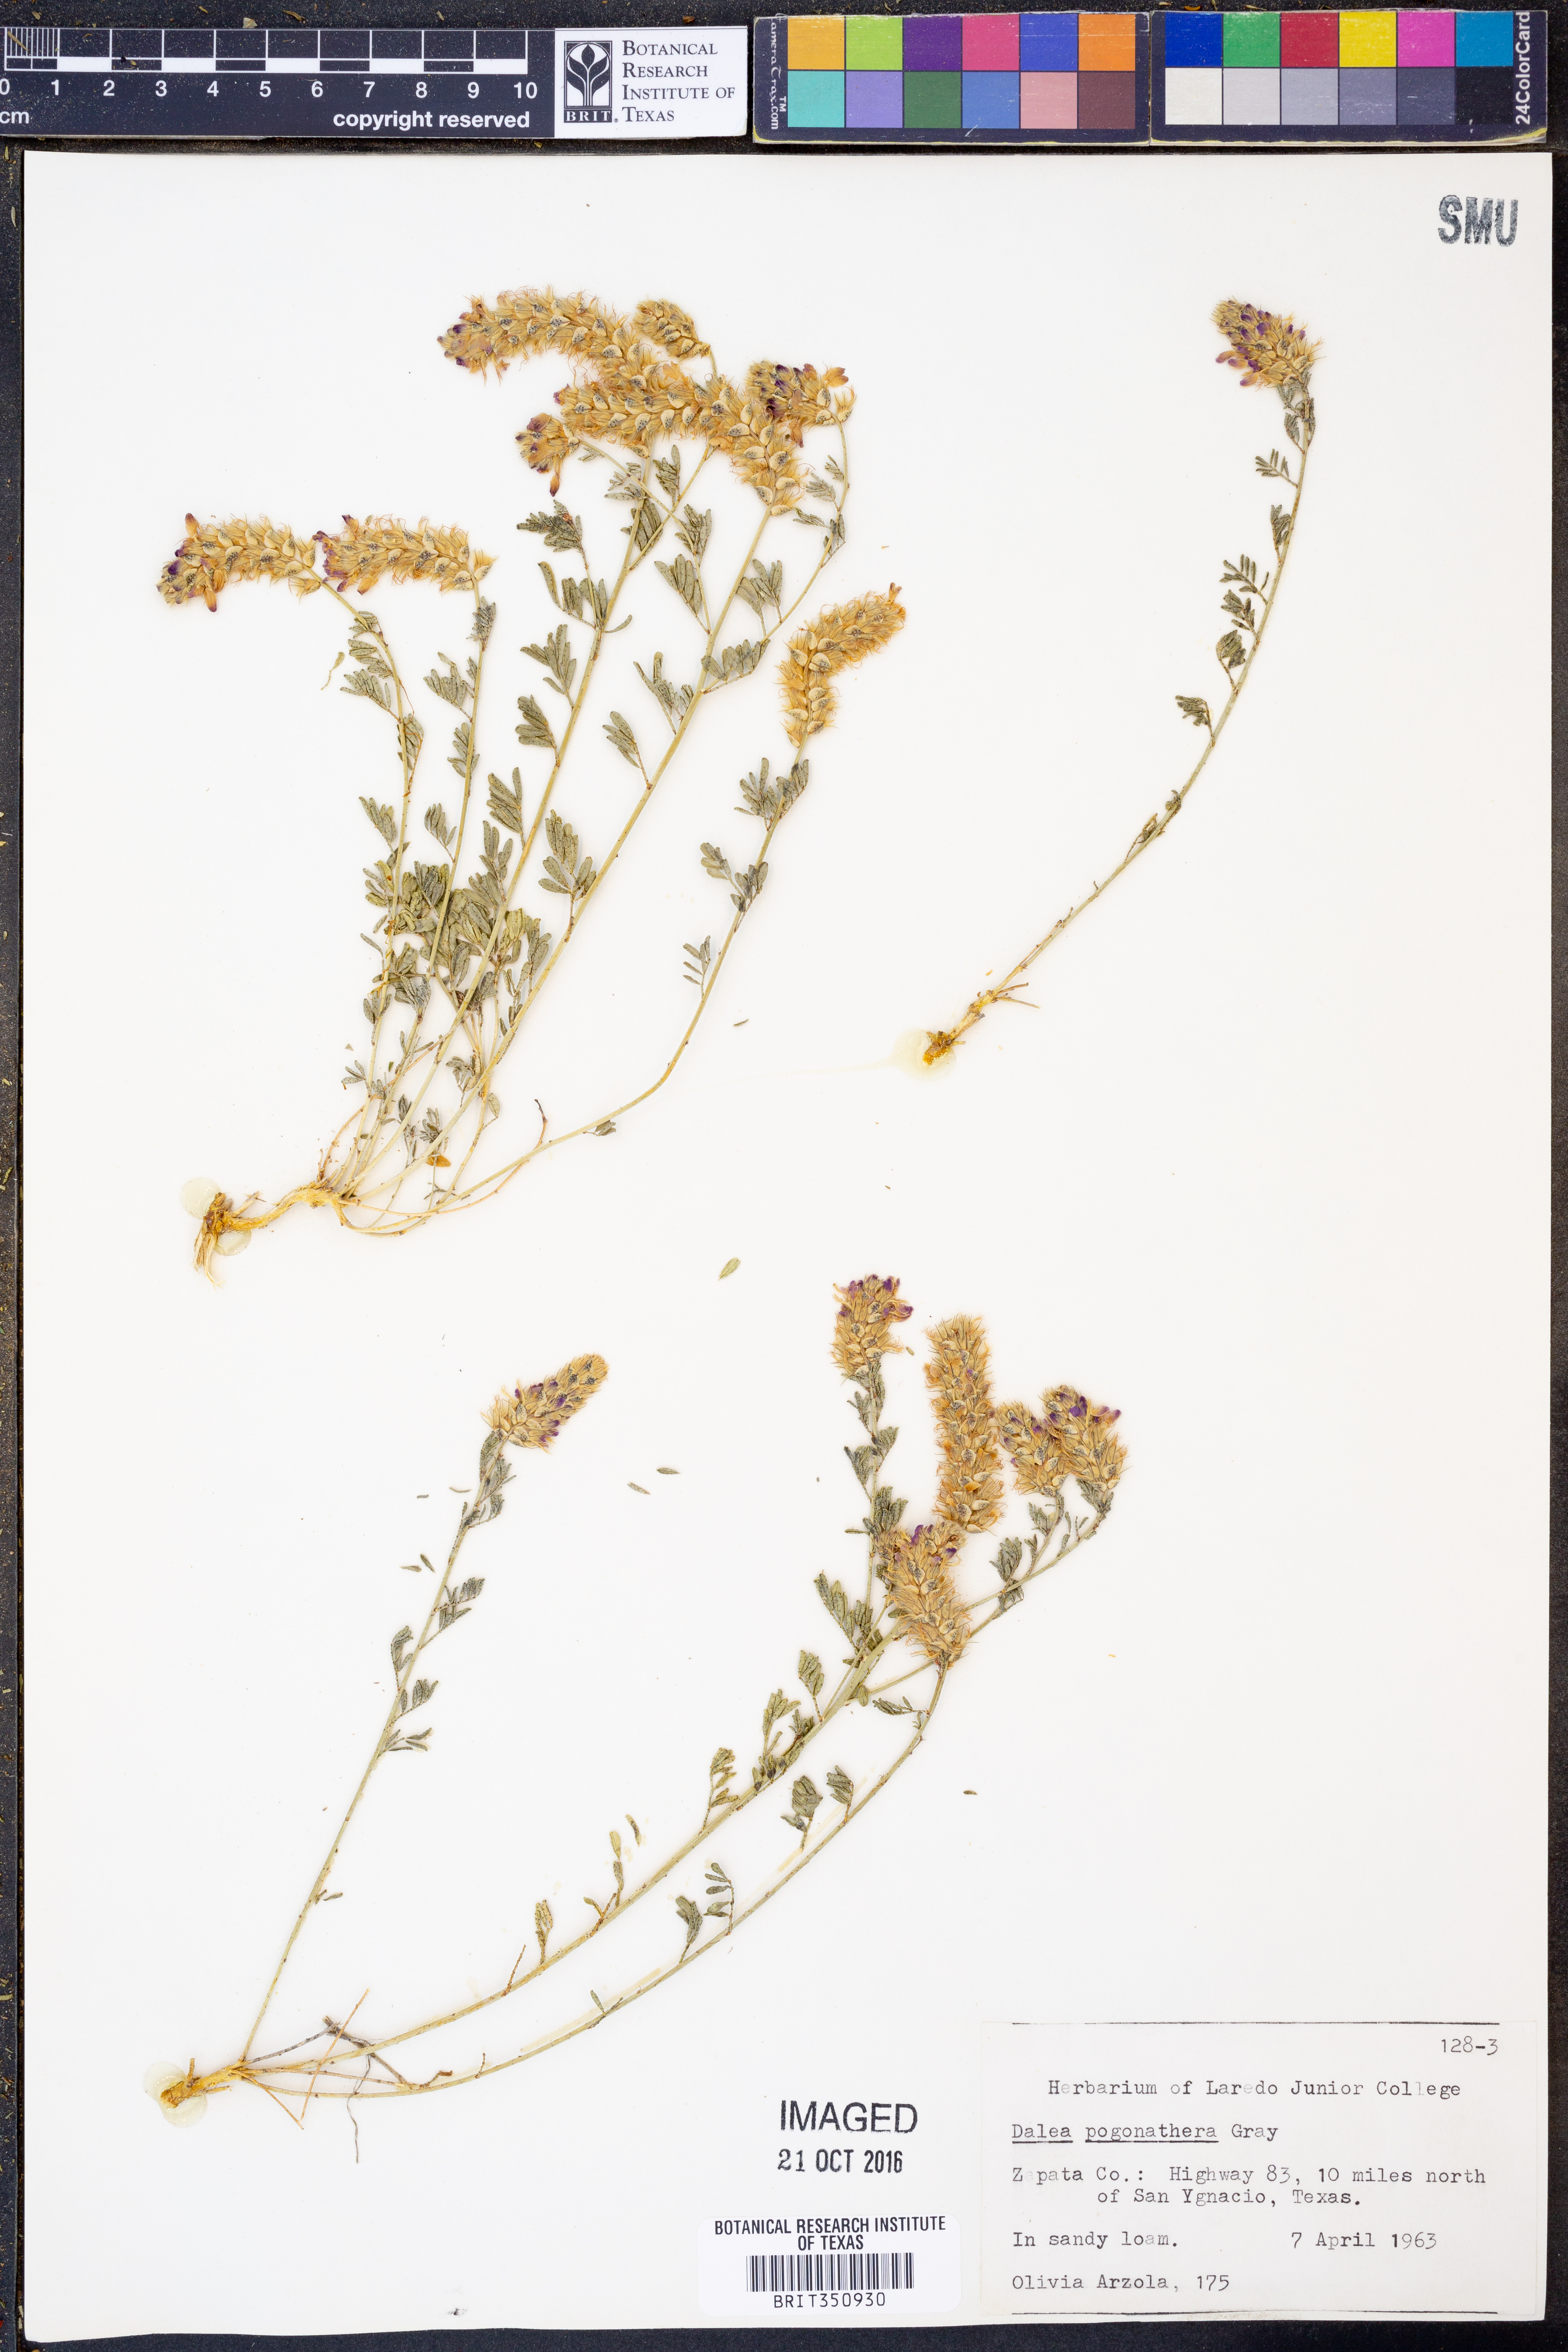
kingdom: Plantae
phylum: Tracheophyta
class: Magnoliopsida
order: Fabales
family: Fabaceae
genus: Dalea
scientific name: Dalea pogonathera
